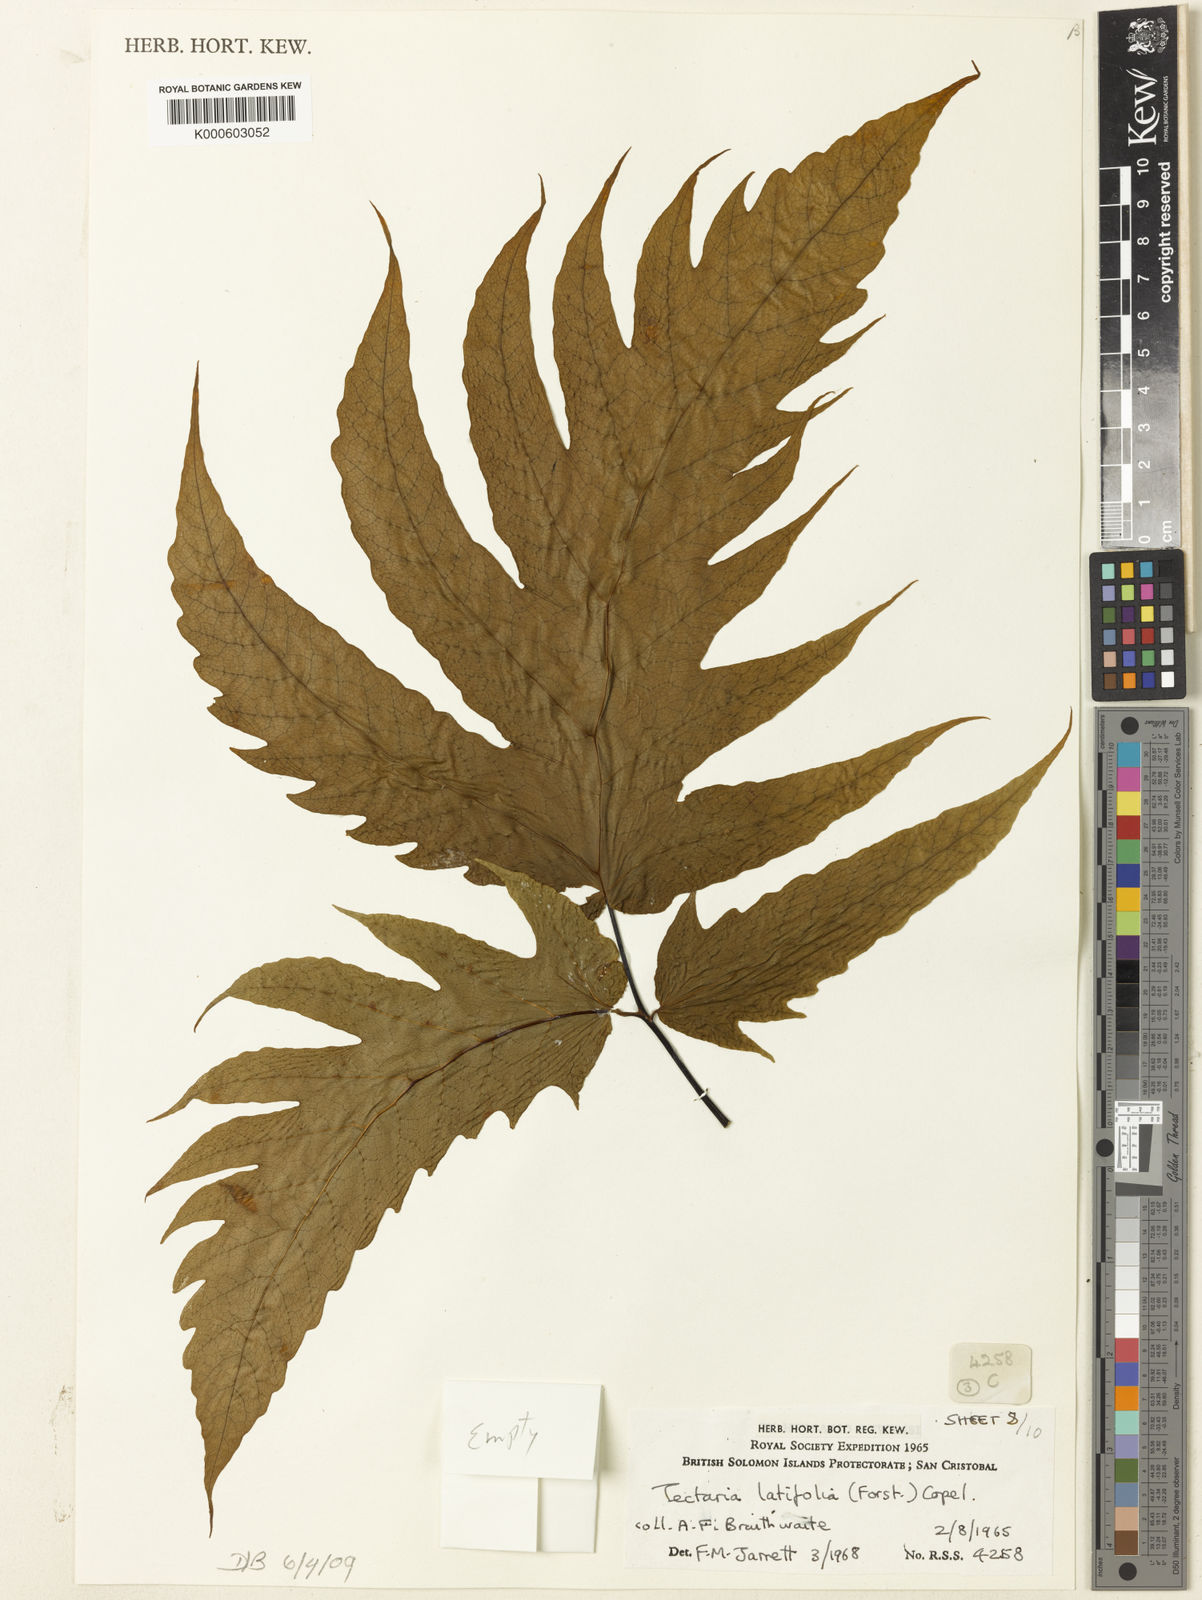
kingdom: Plantae
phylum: Tracheophyta
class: Polypodiopsida
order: Polypodiales
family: Tectariaceae
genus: Tectaria
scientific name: Tectaria
